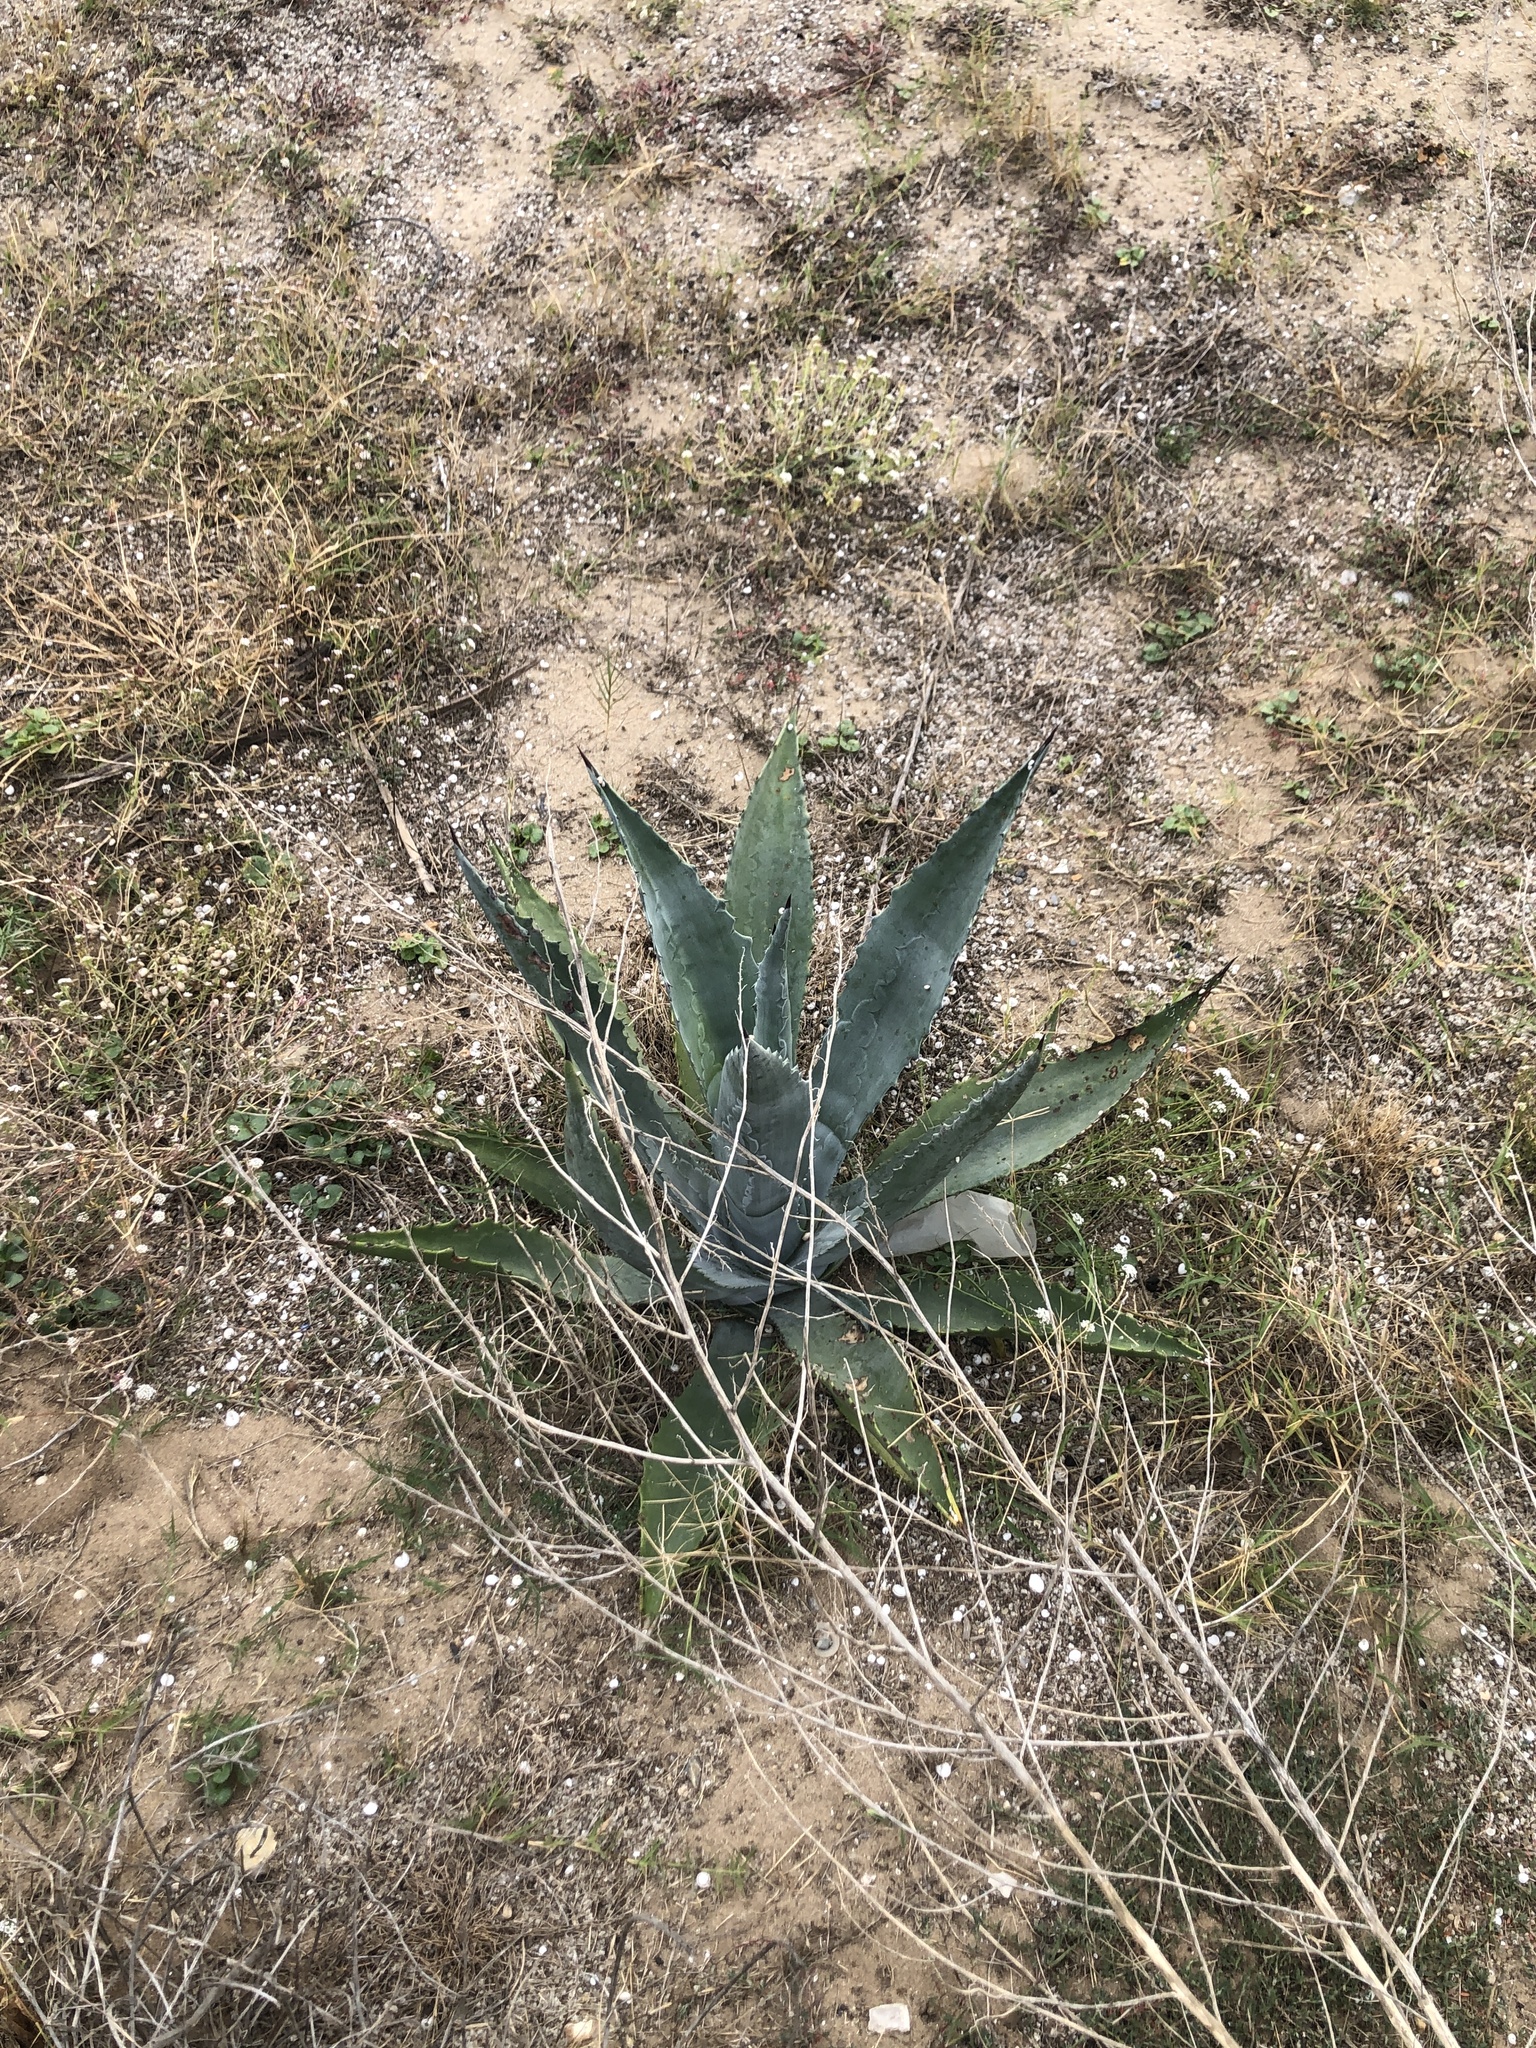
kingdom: Plantae
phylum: Tracheophyta
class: Liliopsida
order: Asparagales
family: Asparagaceae
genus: Agave
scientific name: Agave americana
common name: Centuryplant
